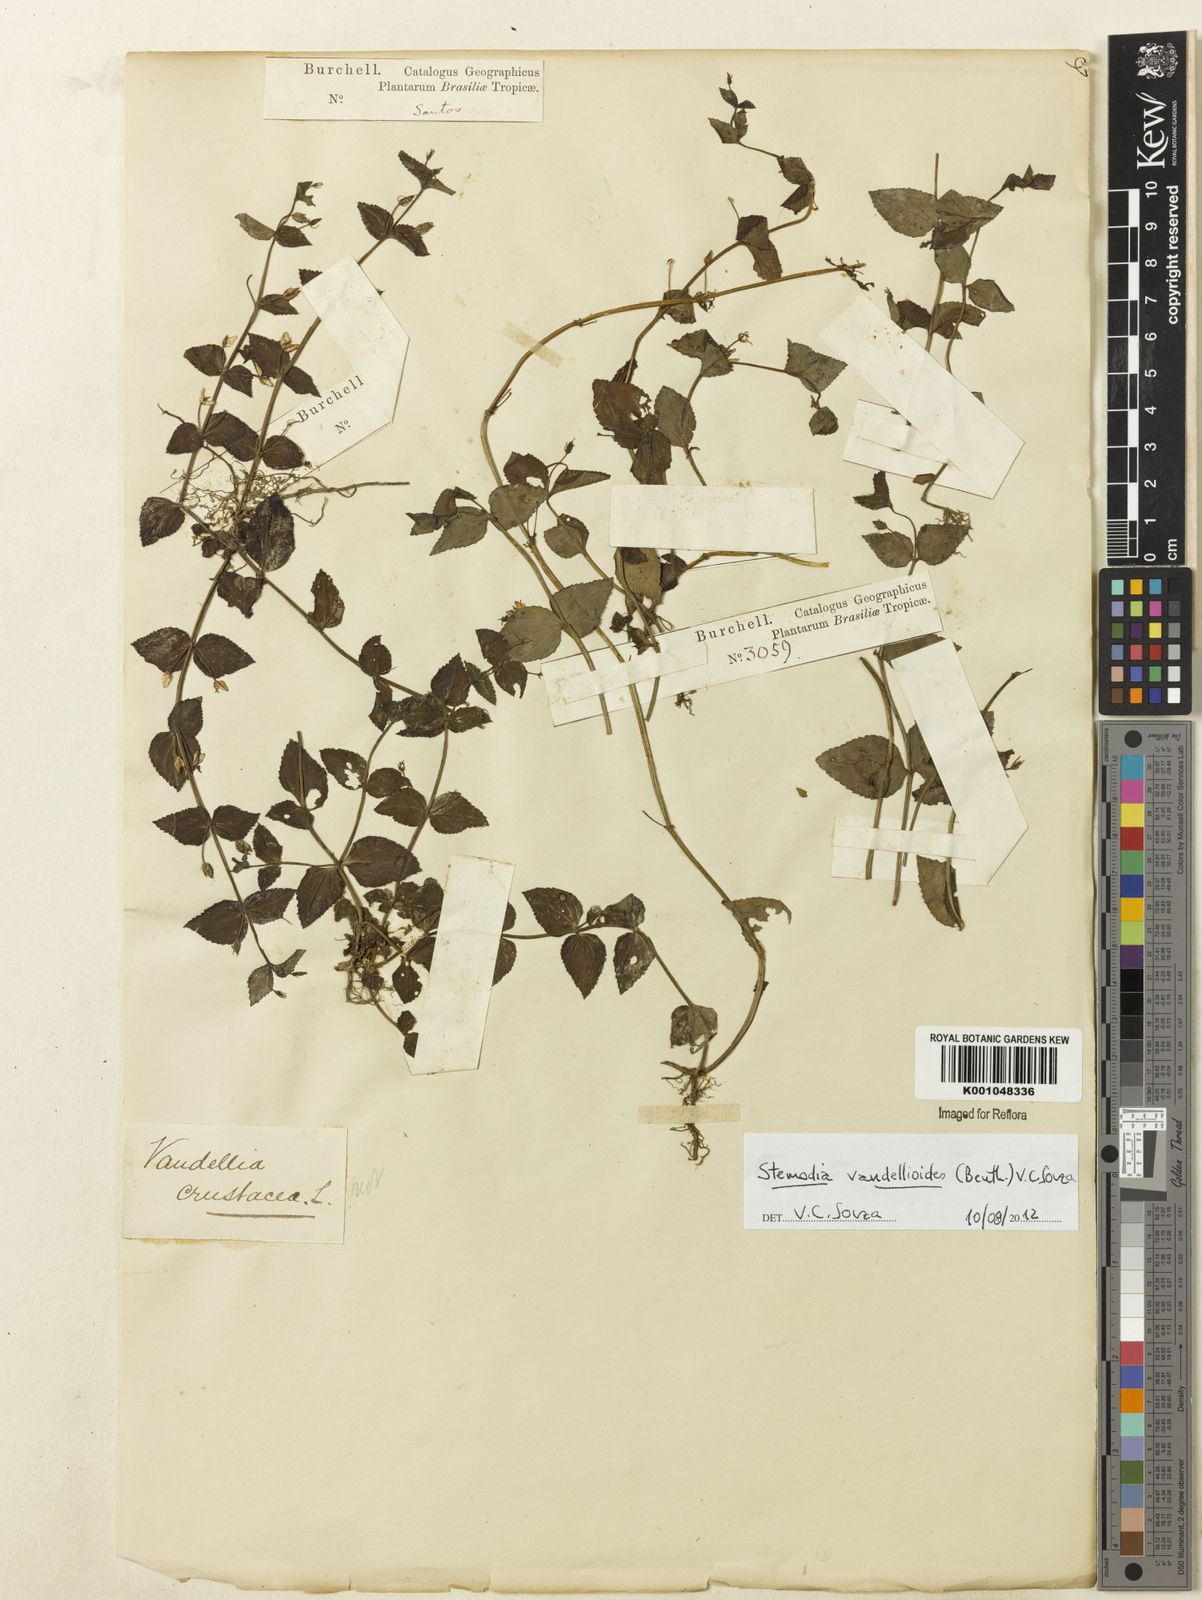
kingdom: Plantae
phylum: Tracheophyta
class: Magnoliopsida
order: Lamiales
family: Plantaginaceae
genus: Darcya
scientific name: Darcya vandellioides
